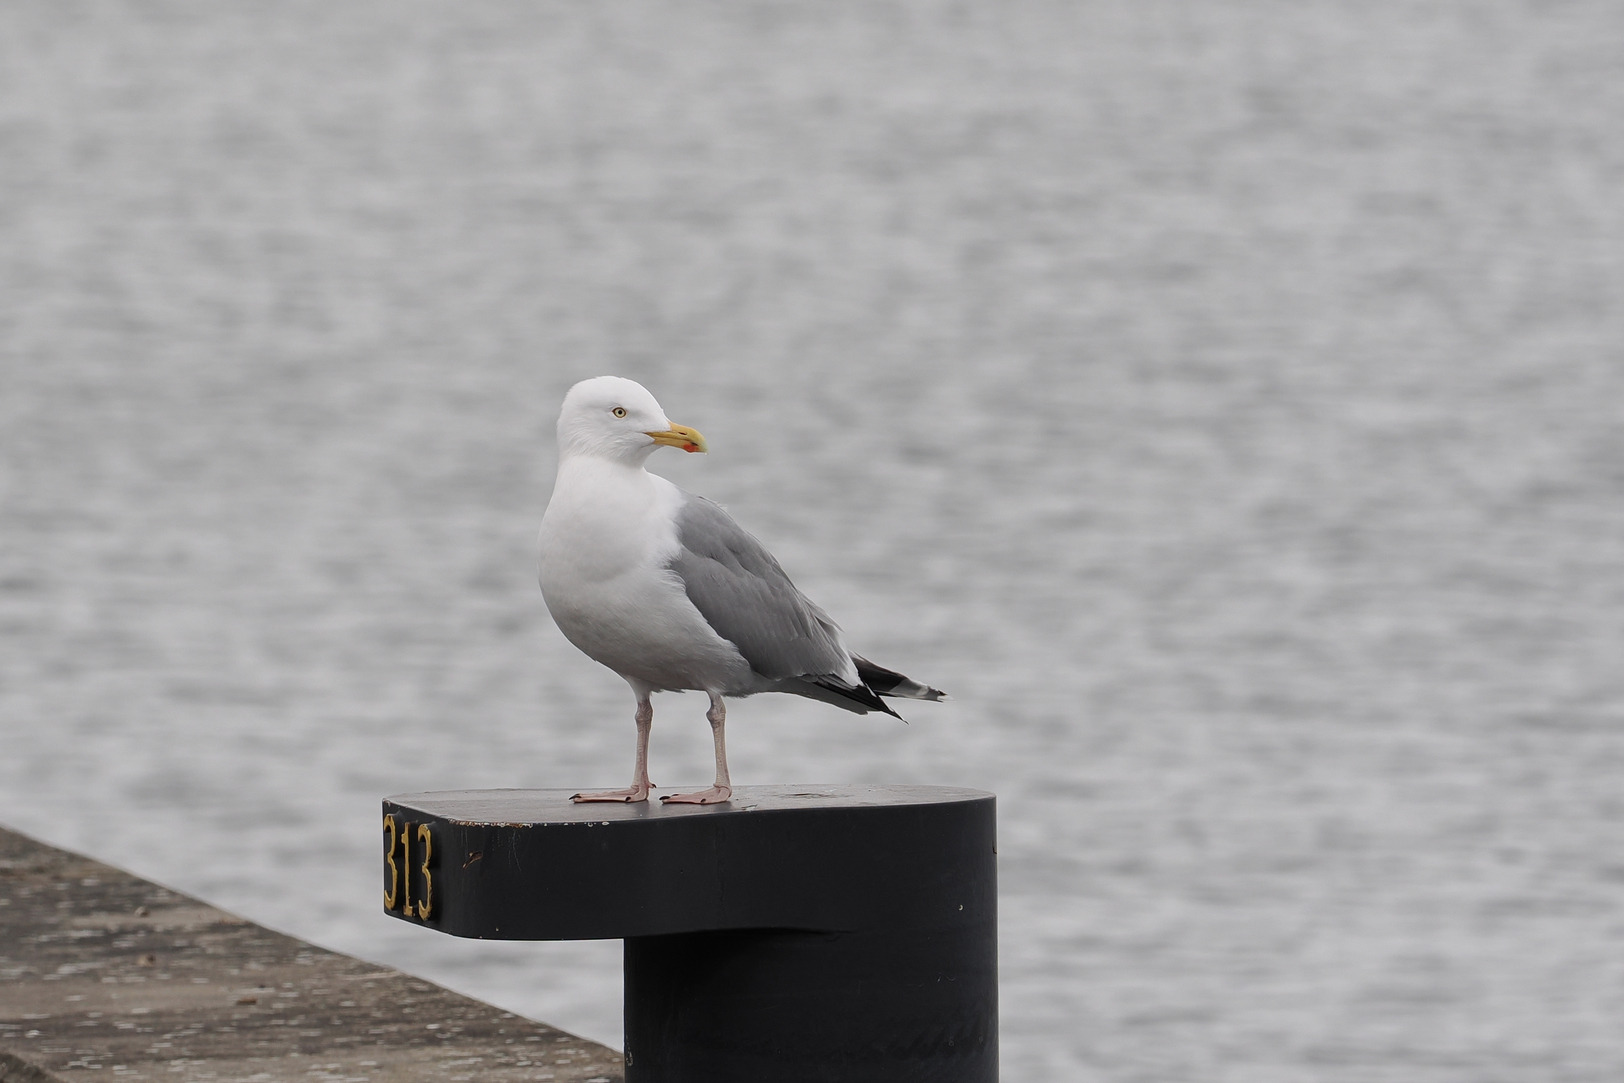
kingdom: Animalia
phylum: Chordata
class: Aves
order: Charadriiformes
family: Laridae
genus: Larus
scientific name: Larus argentatus
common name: Sølvmåge
